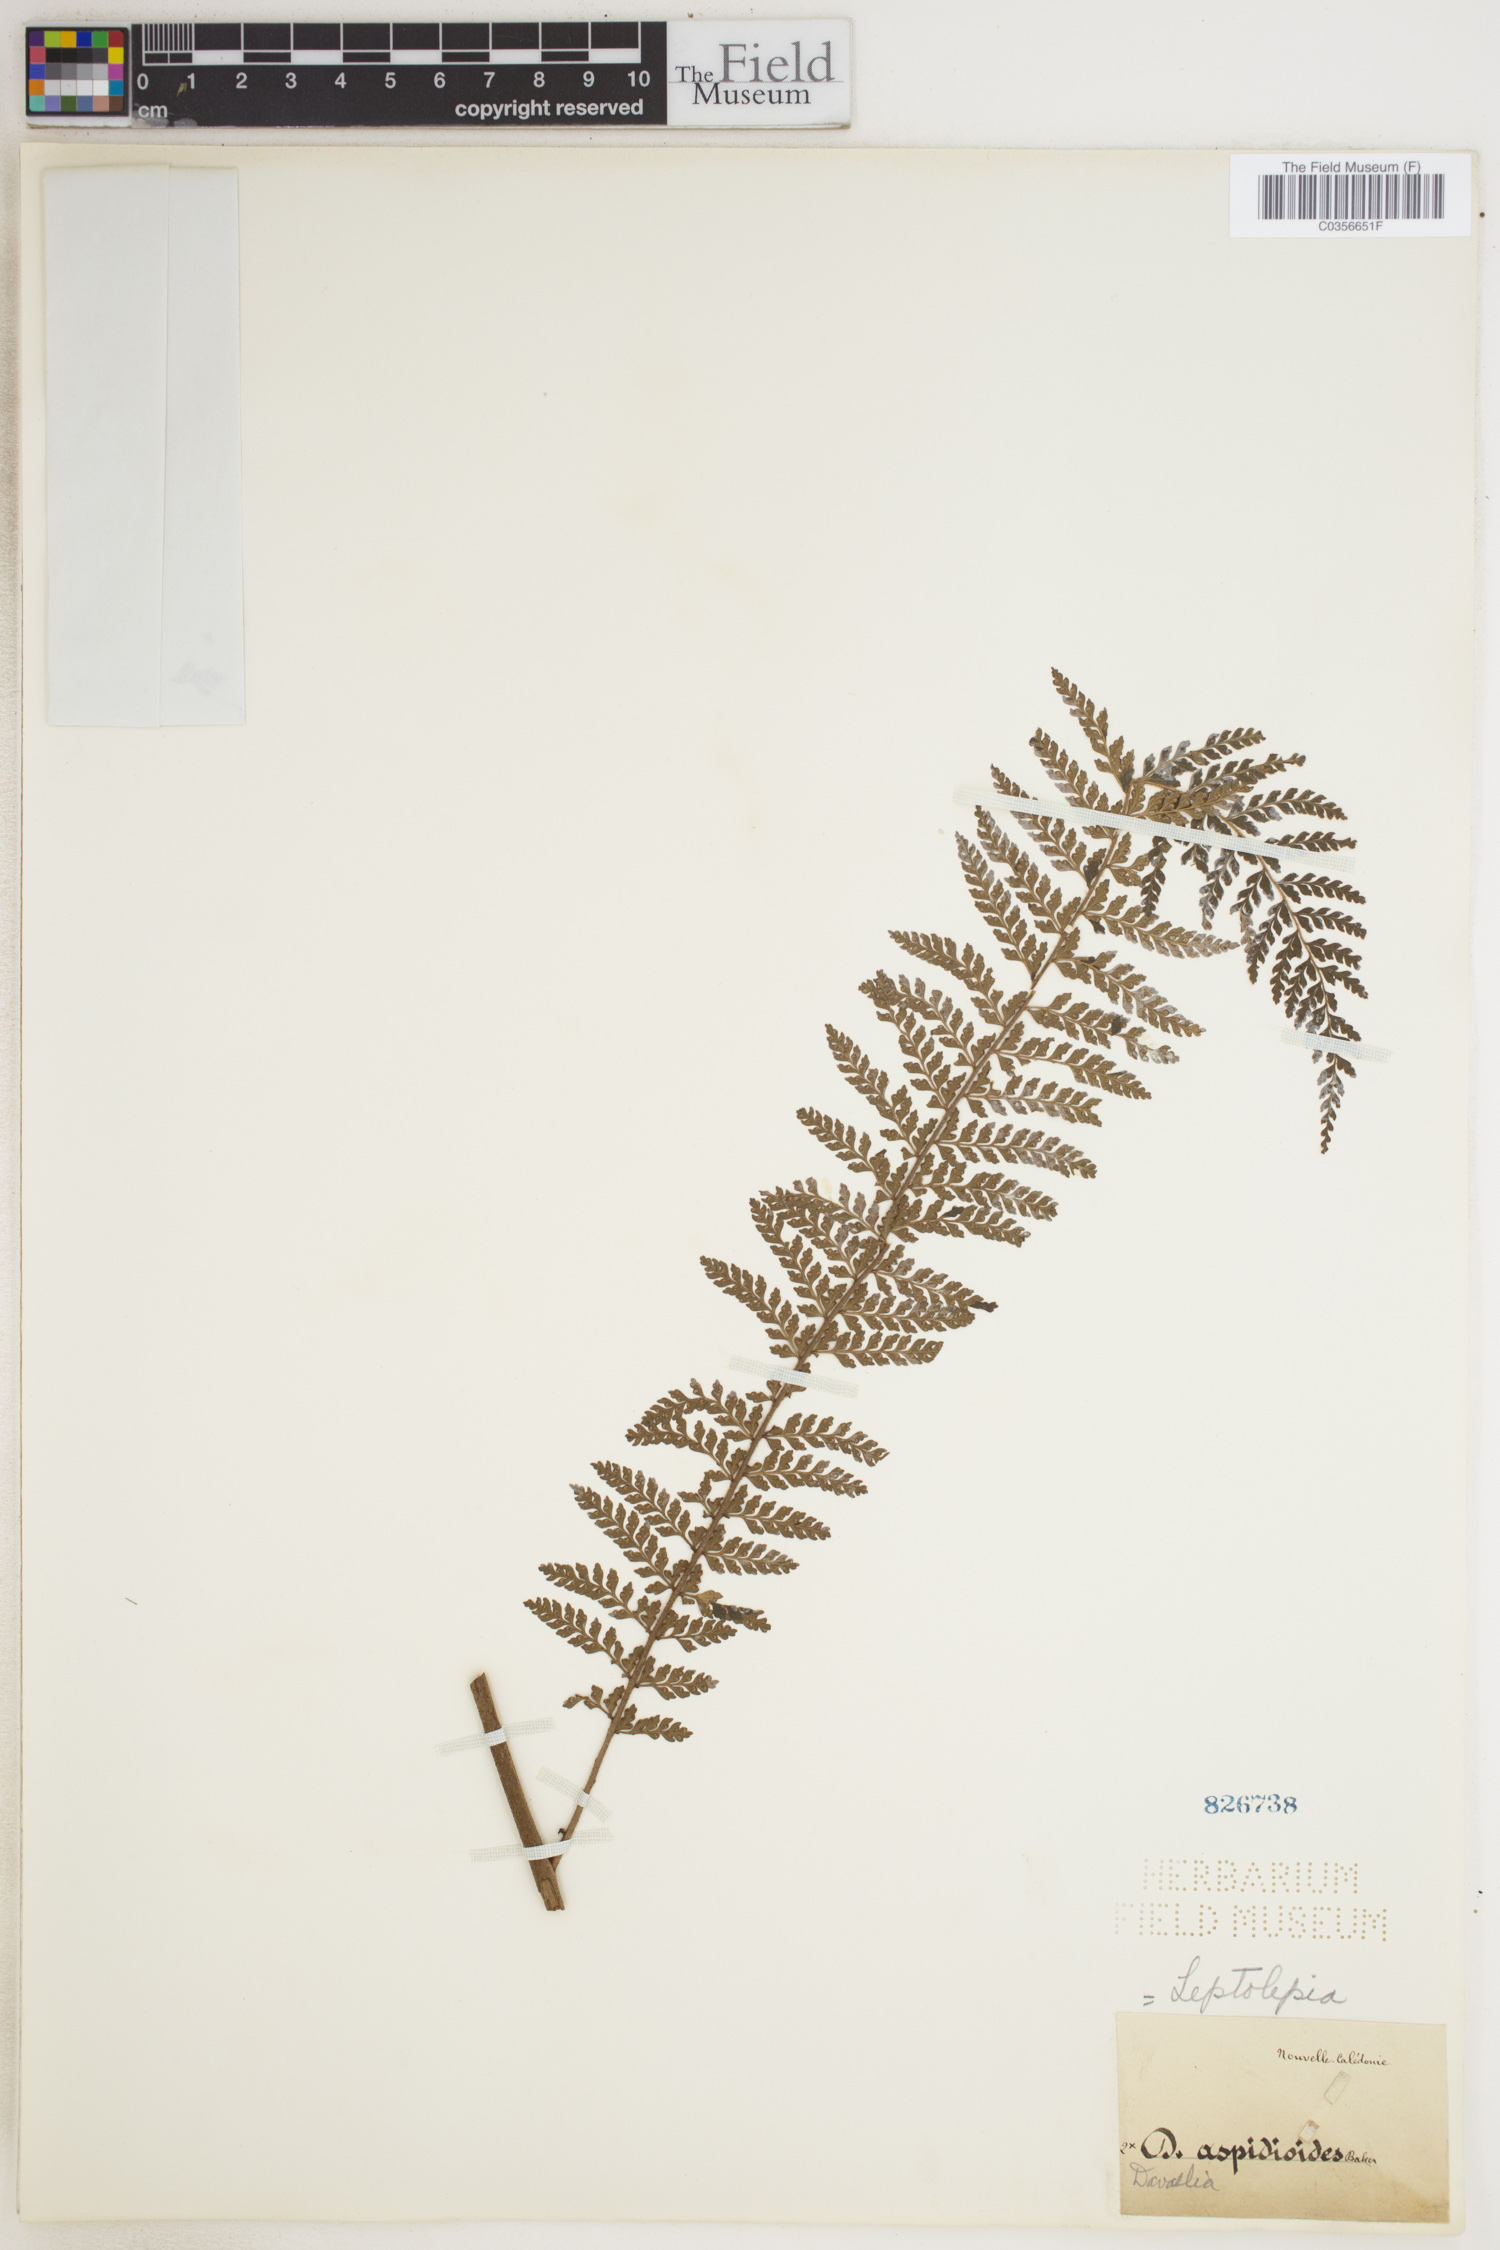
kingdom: Plantae
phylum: Tracheophyta
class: Polypodiopsida
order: Polypodiales
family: Dennstaedtiaceae
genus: Leptolepia
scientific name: Leptolepia
